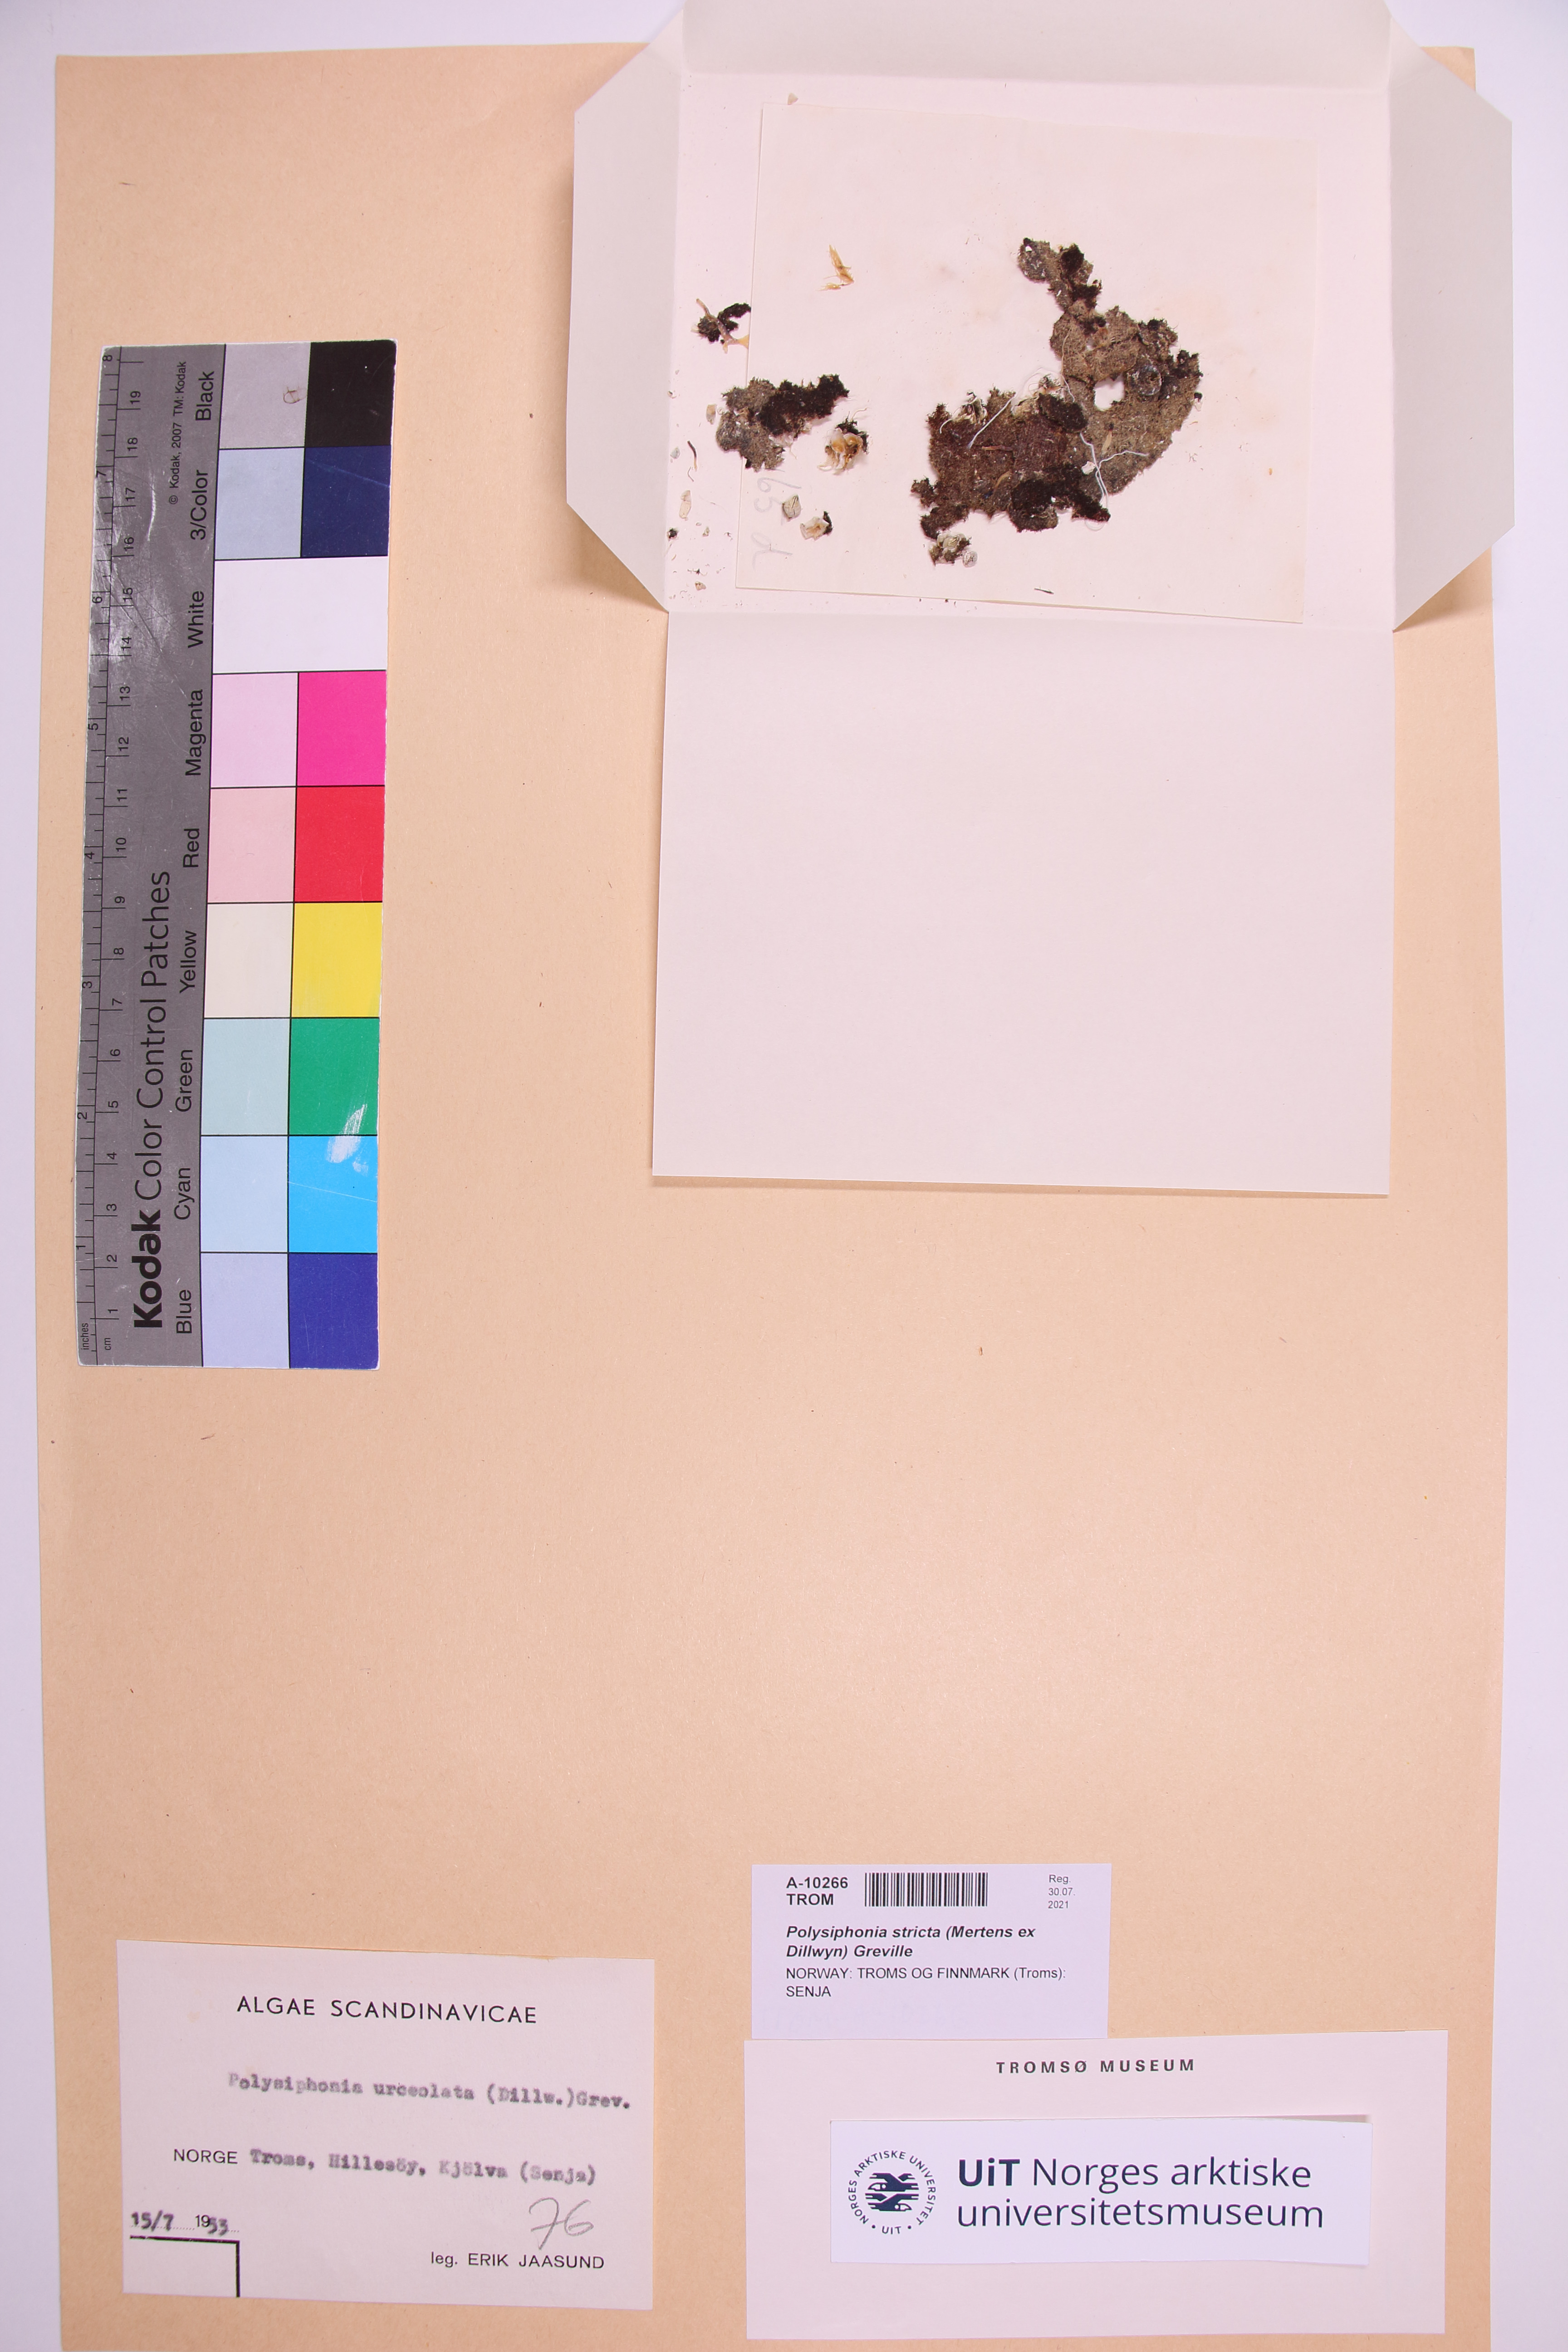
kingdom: Plantae
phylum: Rhodophyta
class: Florideophyceae
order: Ceramiales
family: Rhodomelaceae
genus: Polysiphonia
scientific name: Polysiphonia stricta
